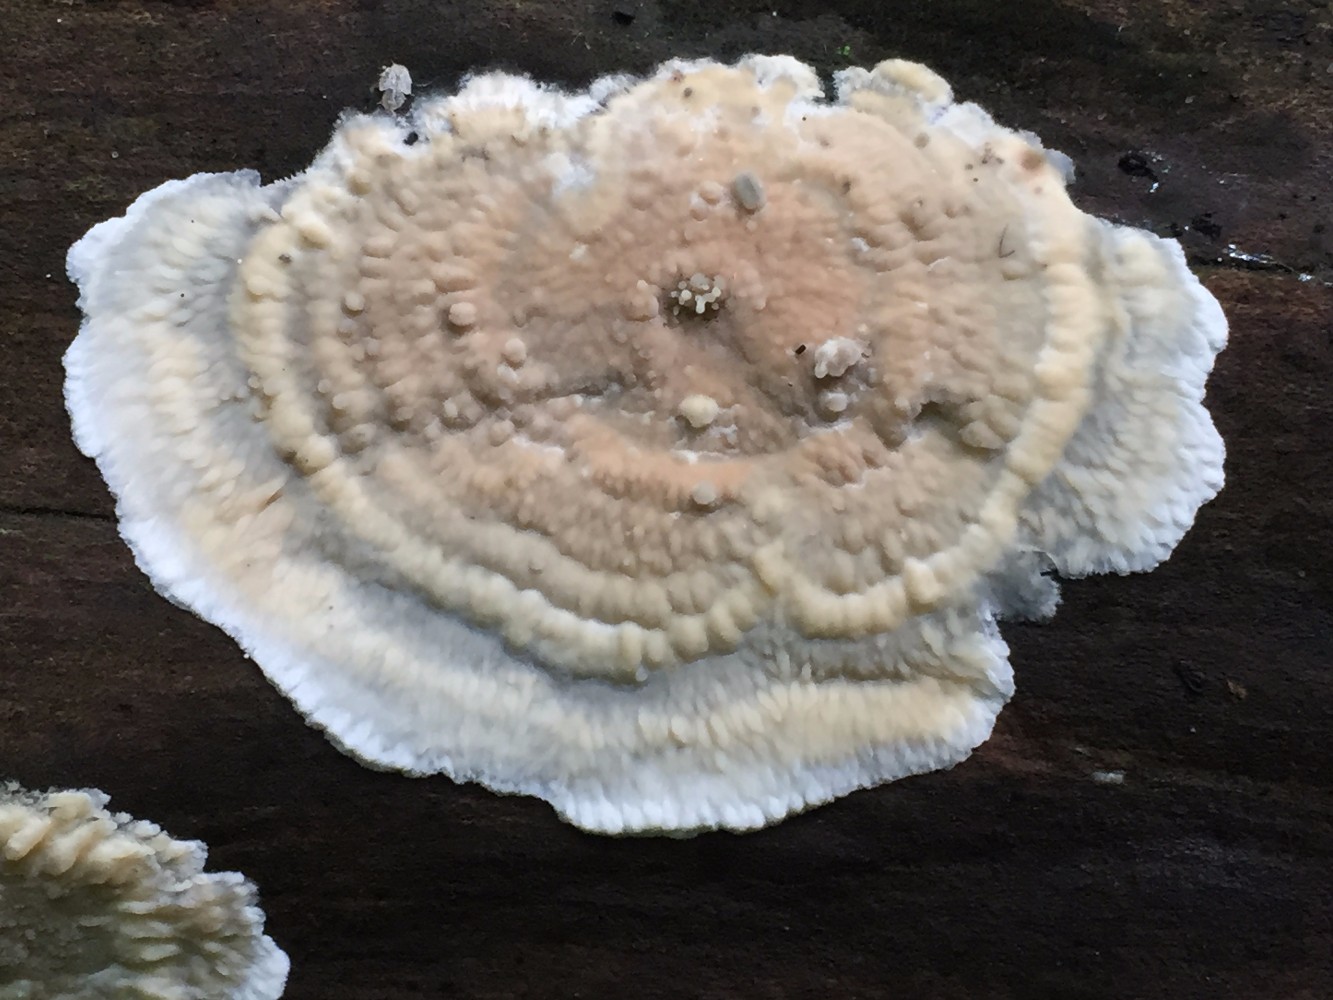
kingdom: Fungi
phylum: Basidiomycota
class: Agaricomycetes
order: Corticiales
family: Corticiaceae
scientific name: Corticiaceae
